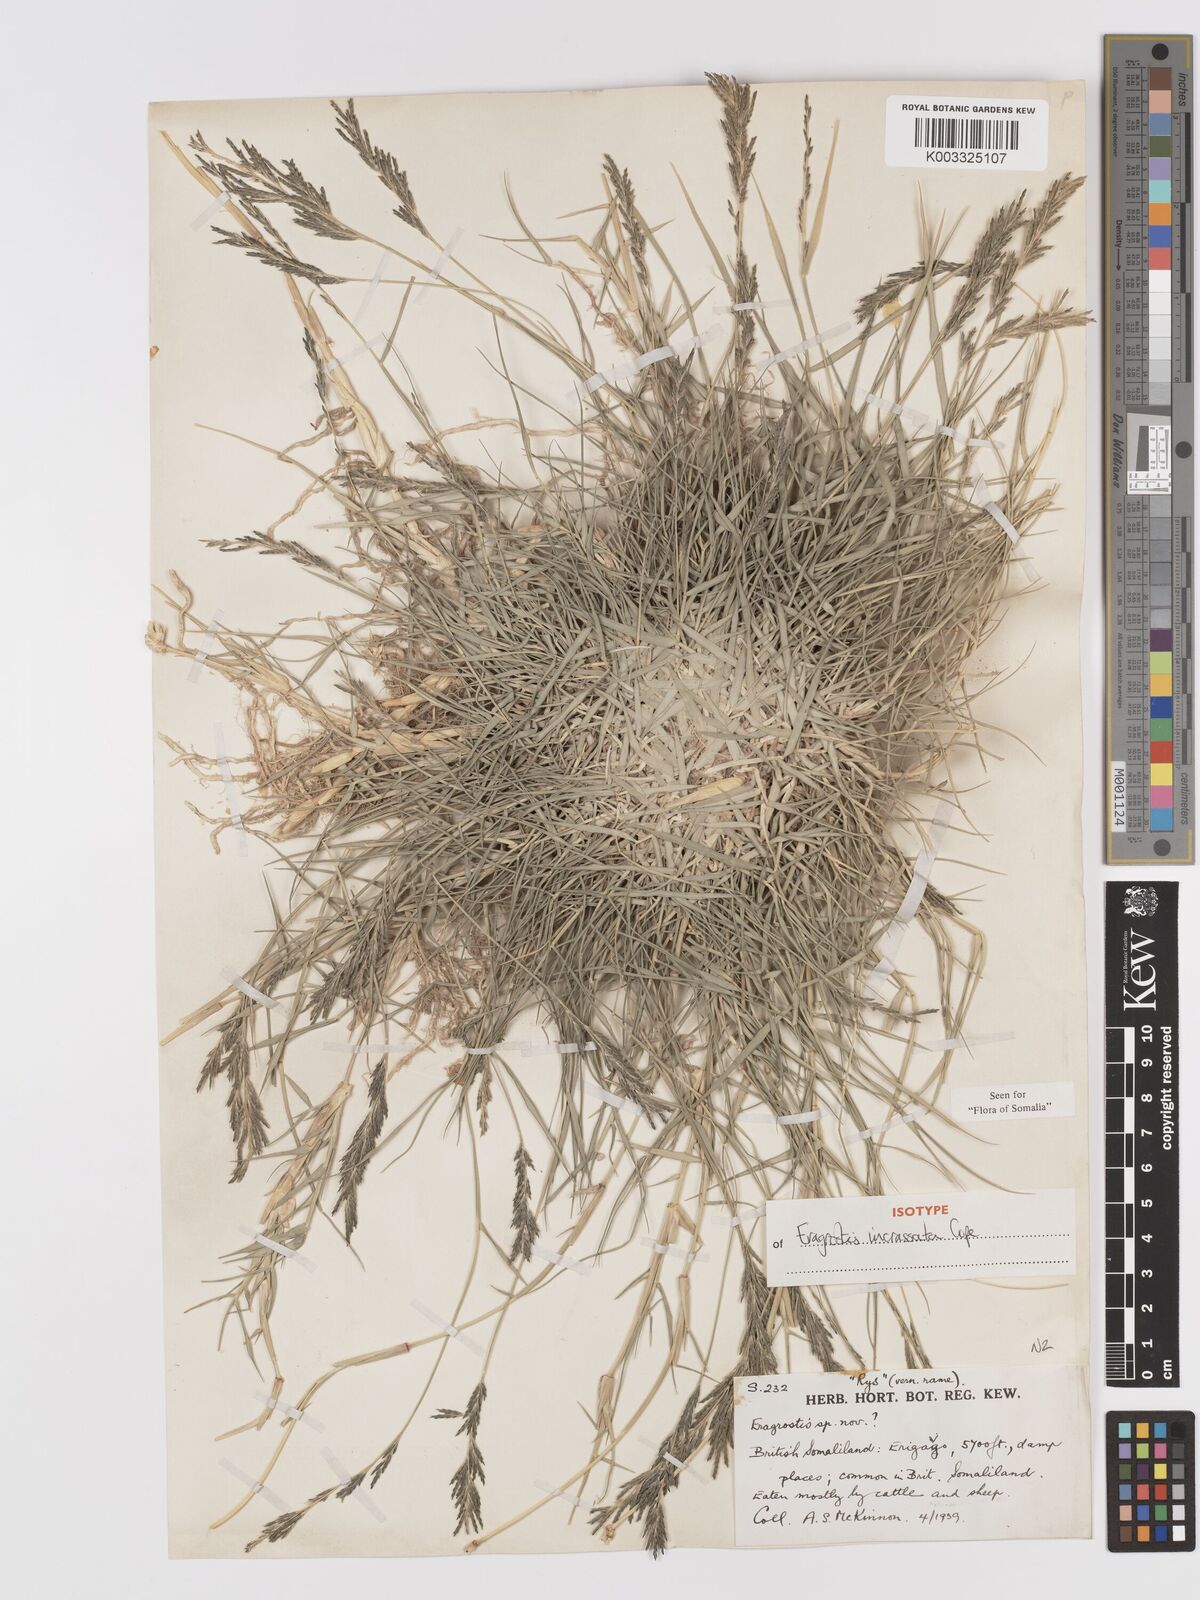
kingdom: Plantae
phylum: Tracheophyta
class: Liliopsida
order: Poales
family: Poaceae
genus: Eragrostis
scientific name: Eragrostis incrassata
